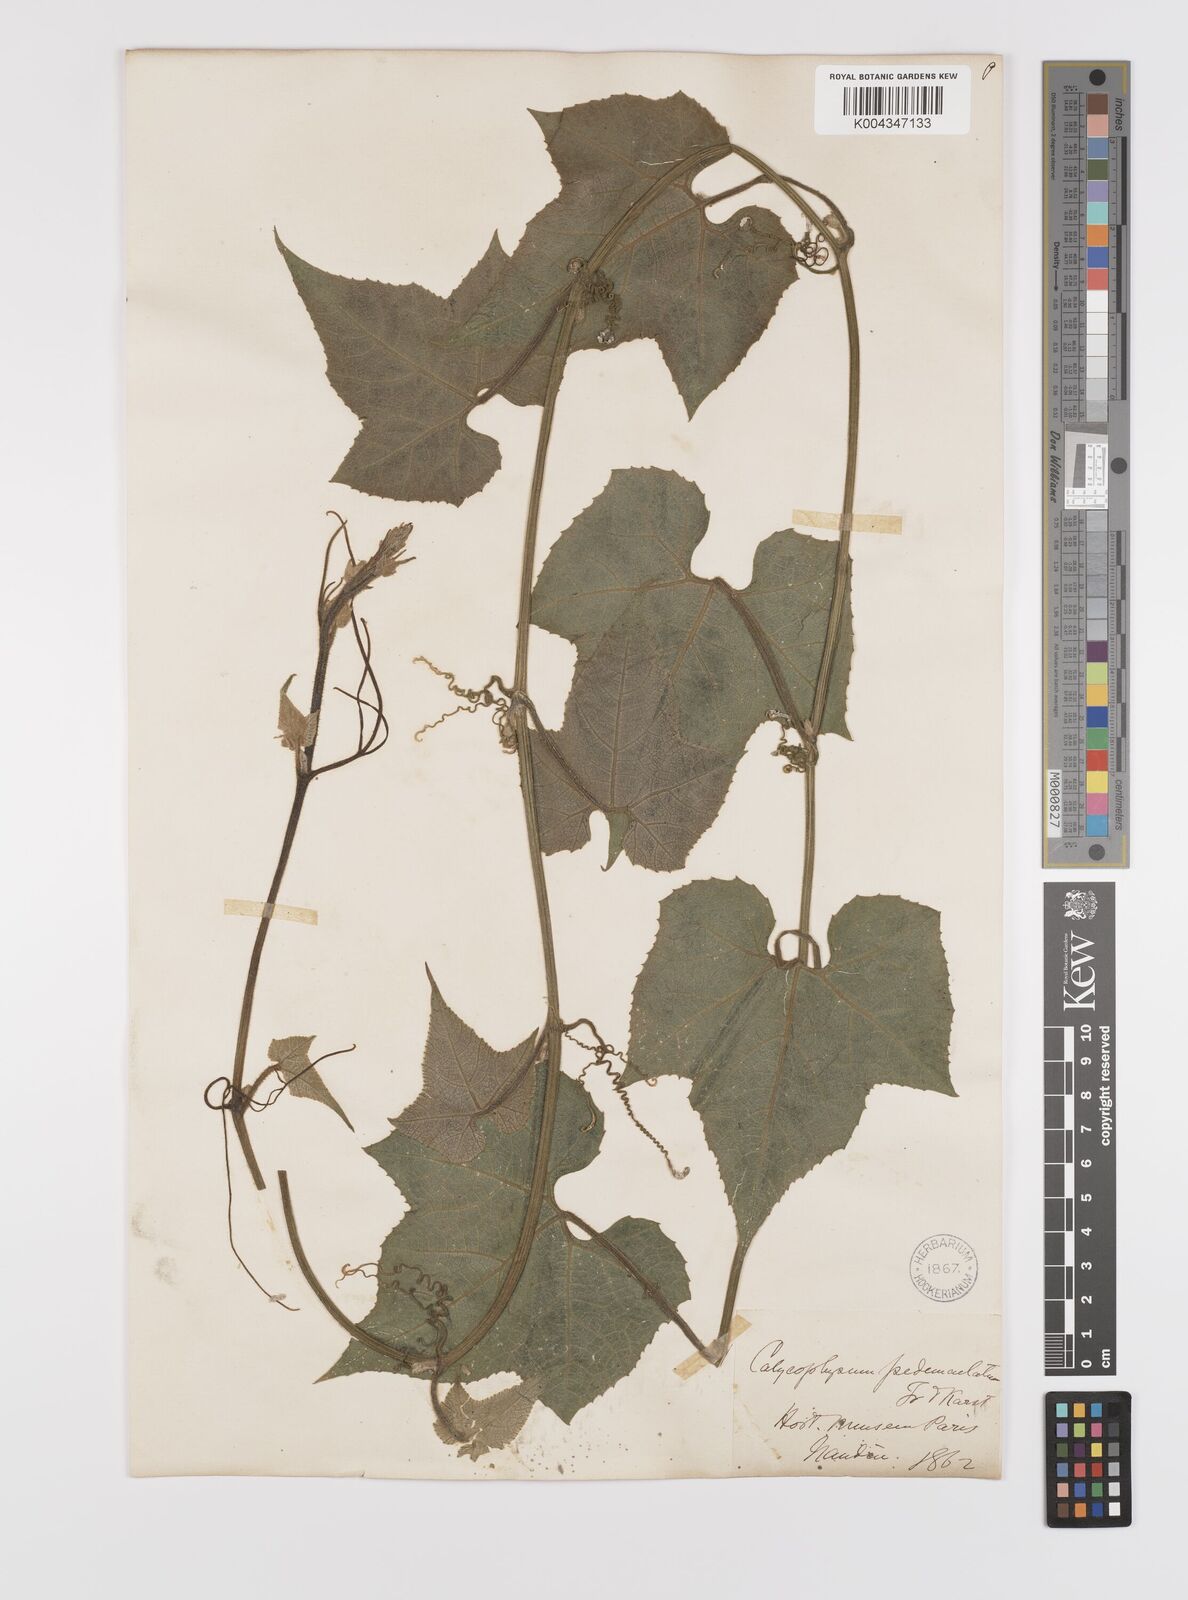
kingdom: Plantae
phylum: Tracheophyta
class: Magnoliopsida
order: Cucurbitales
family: Cucurbitaceae
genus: Calycophysum
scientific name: Calycophysum pedunculatum
